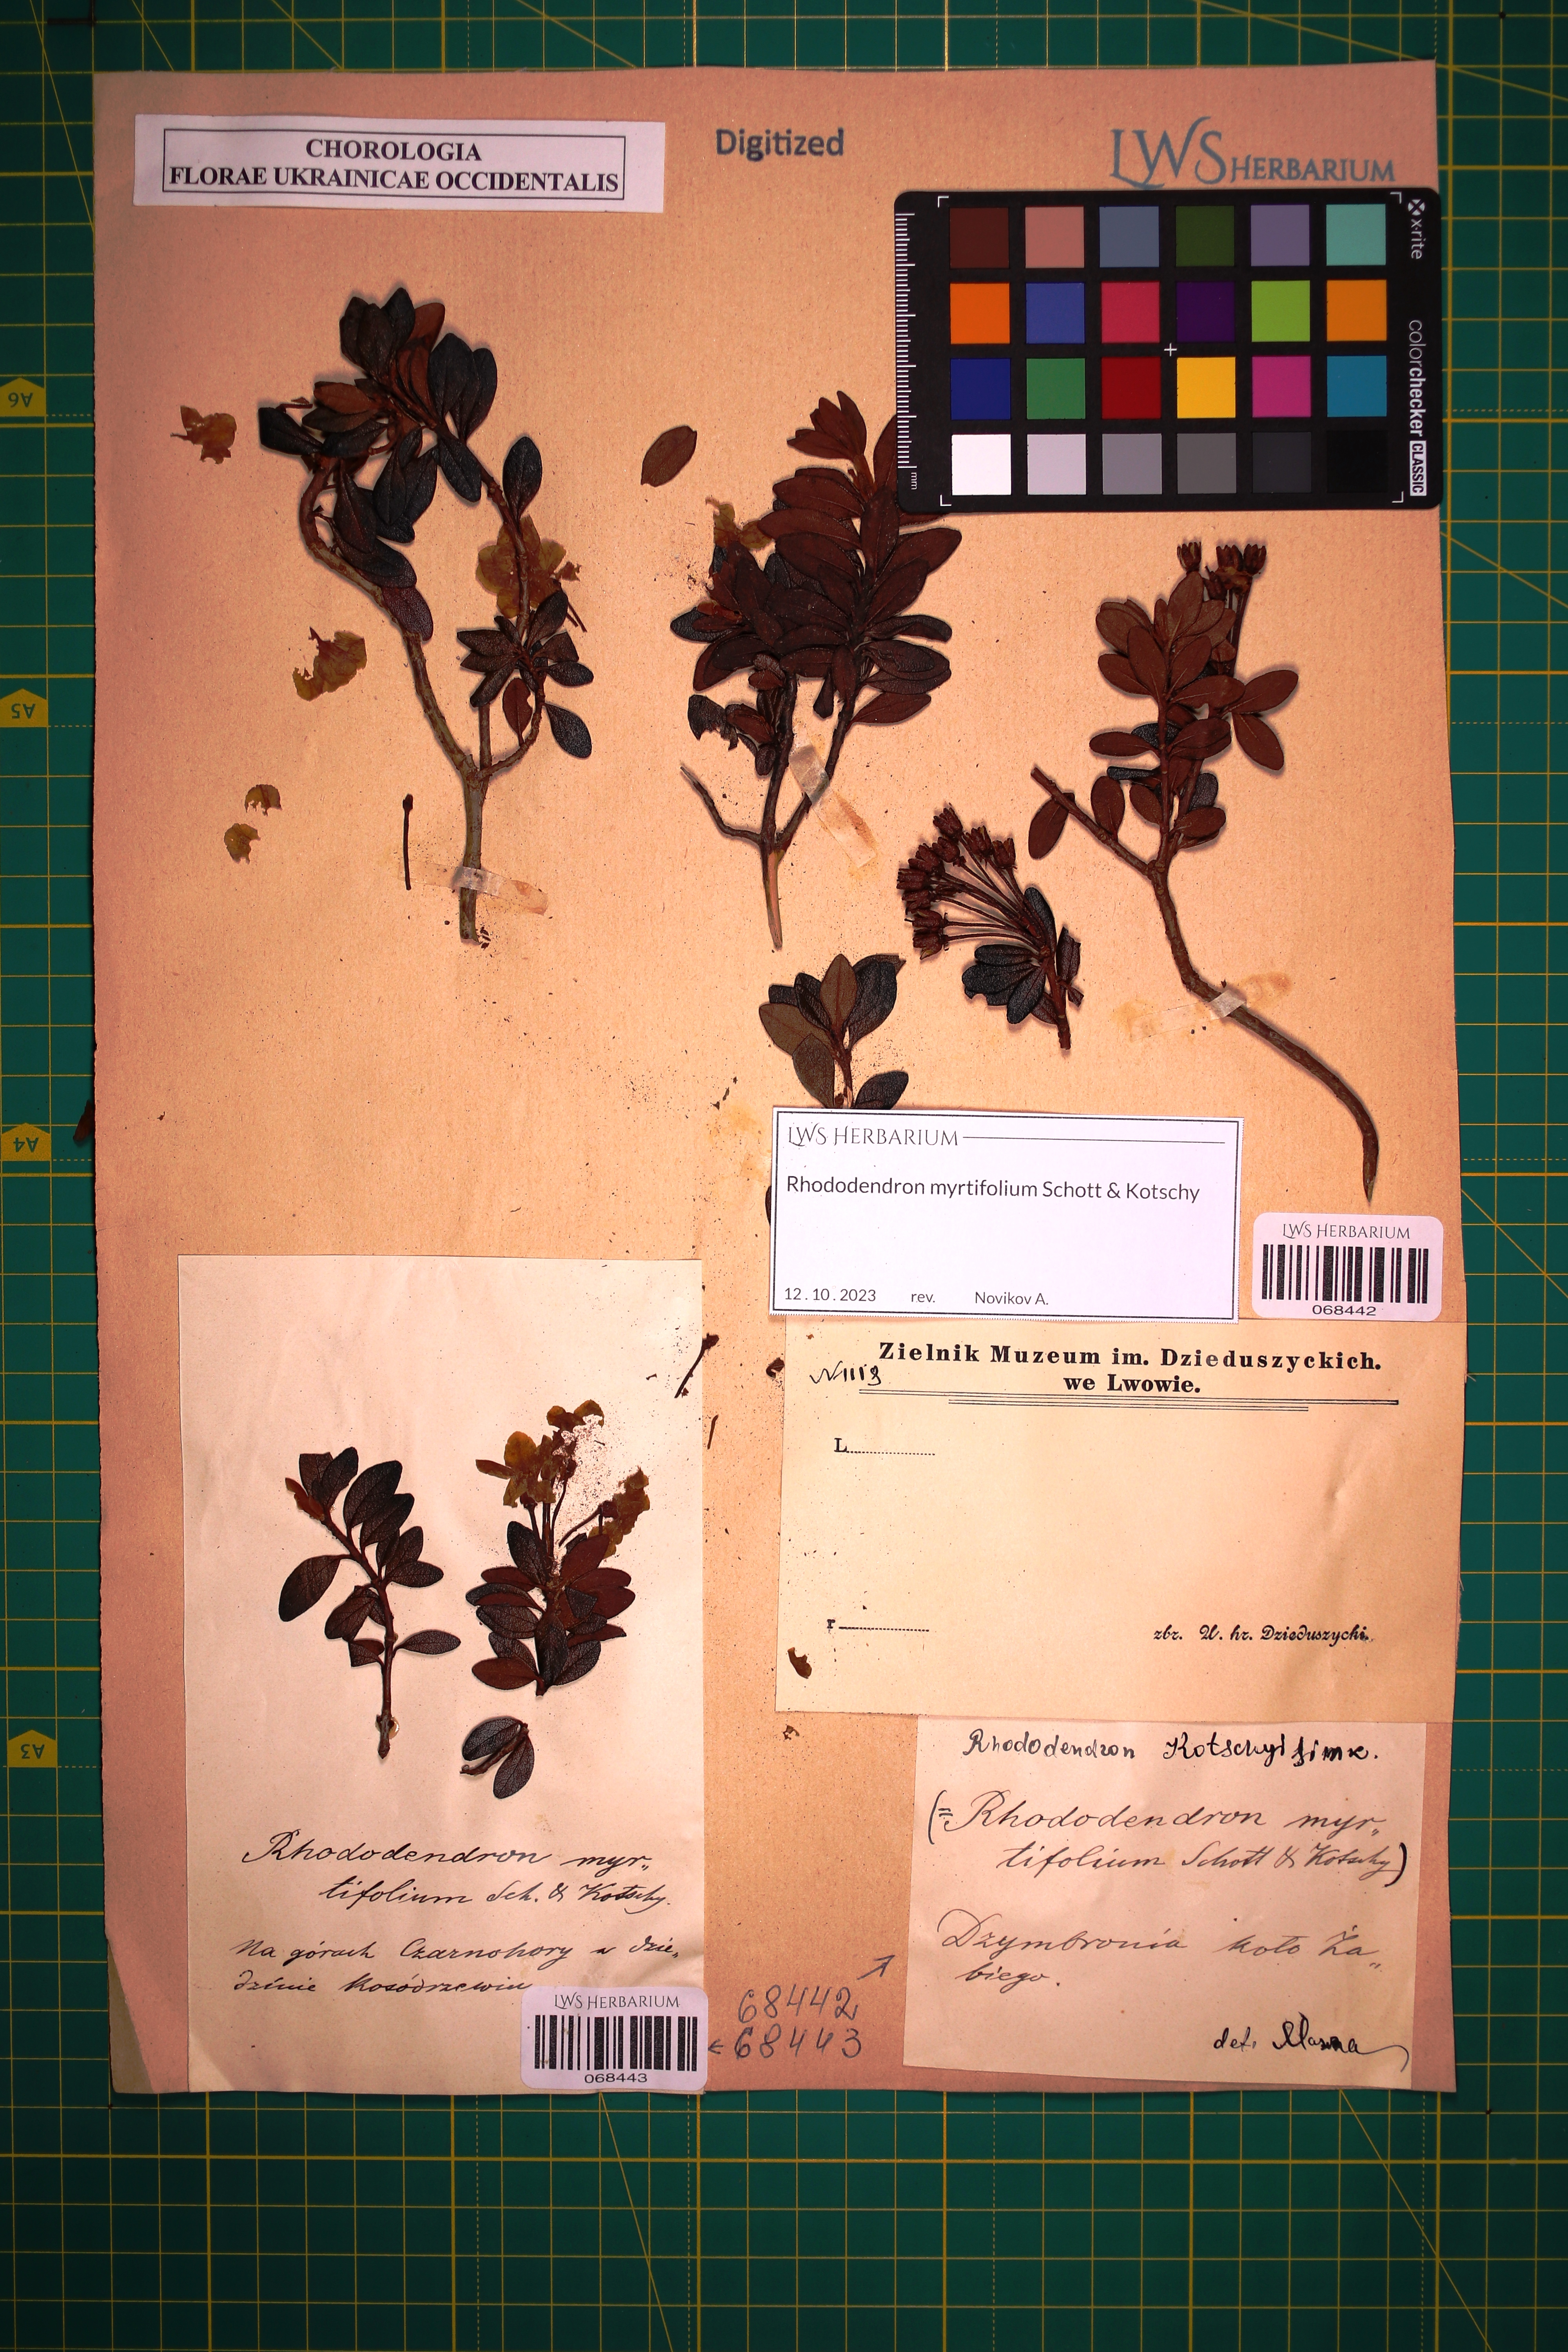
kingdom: Plantae
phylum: Tracheophyta
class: Magnoliopsida
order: Ericales
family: Ericaceae
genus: Rhododendron
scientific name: Rhododendron kotschyi
